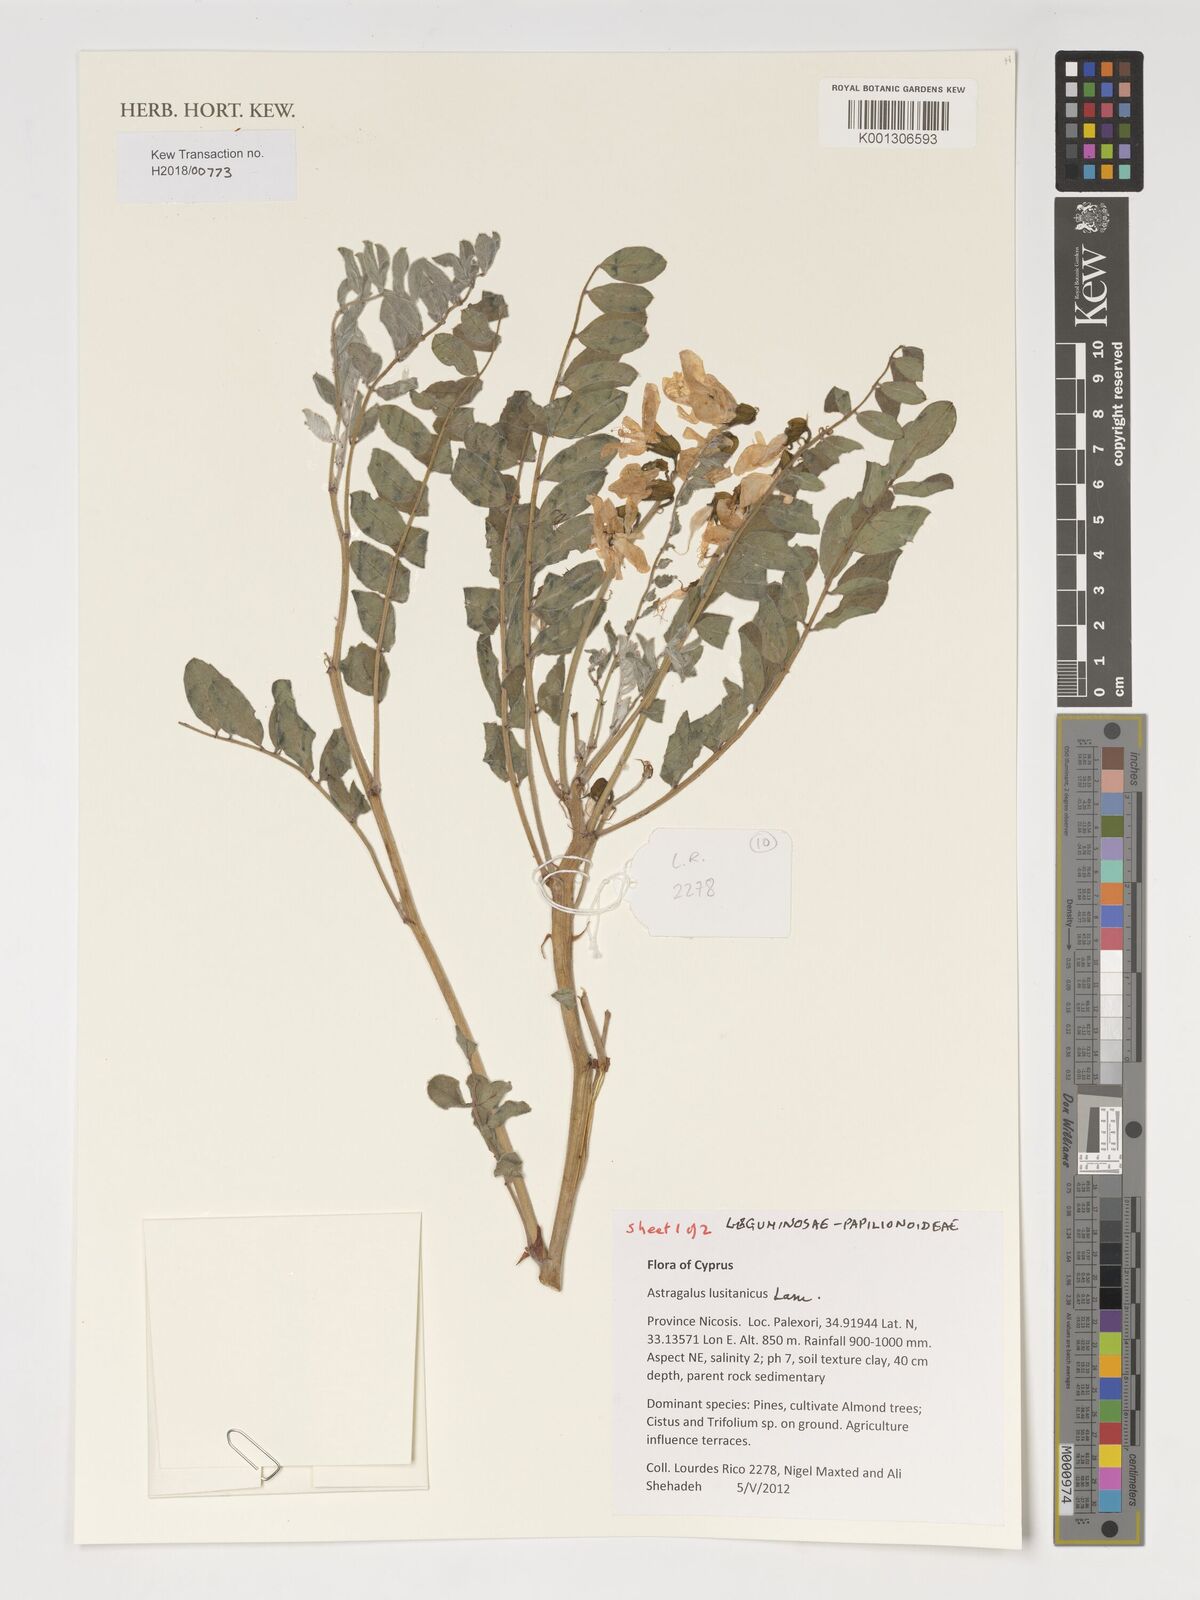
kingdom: Plantae
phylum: Tracheophyta
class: Magnoliopsida
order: Fabales
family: Fabaceae
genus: Erophaca
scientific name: Erophaca baetica
